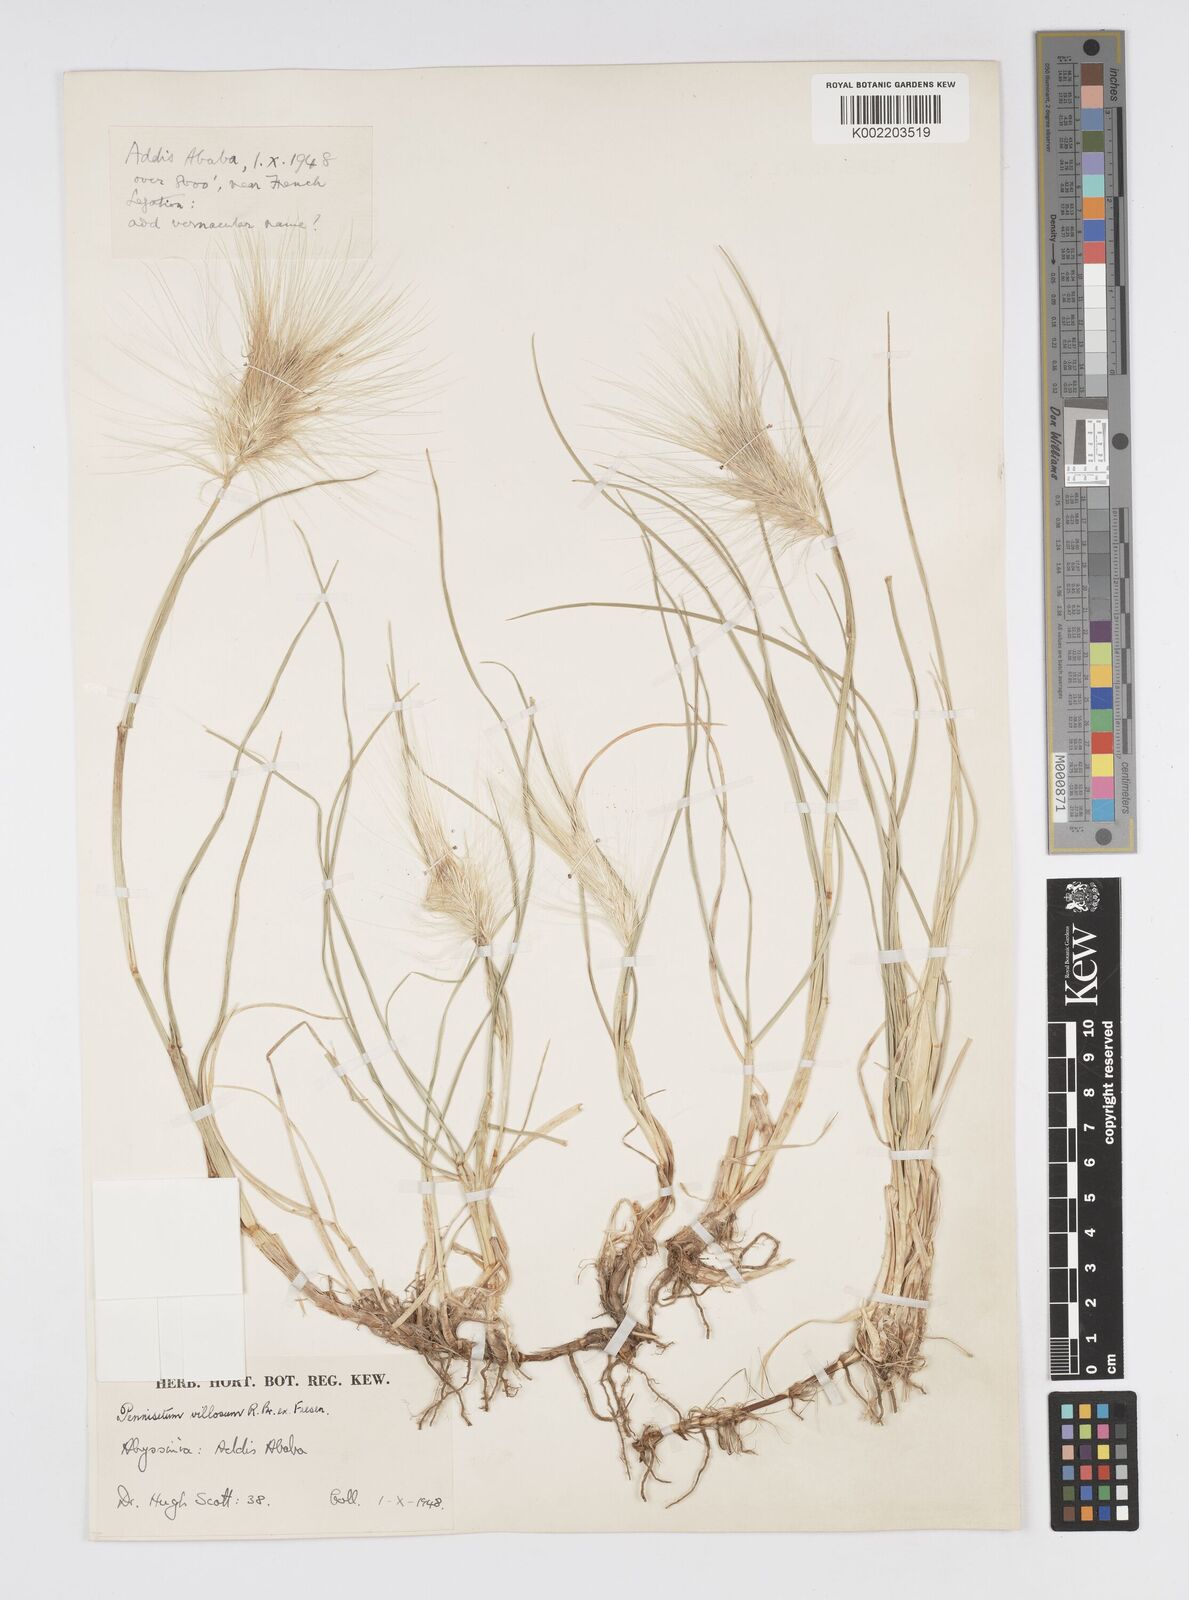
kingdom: Plantae
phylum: Tracheophyta
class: Liliopsida
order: Poales
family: Poaceae
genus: Cenchrus
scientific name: Cenchrus longisetus
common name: Feathertop
